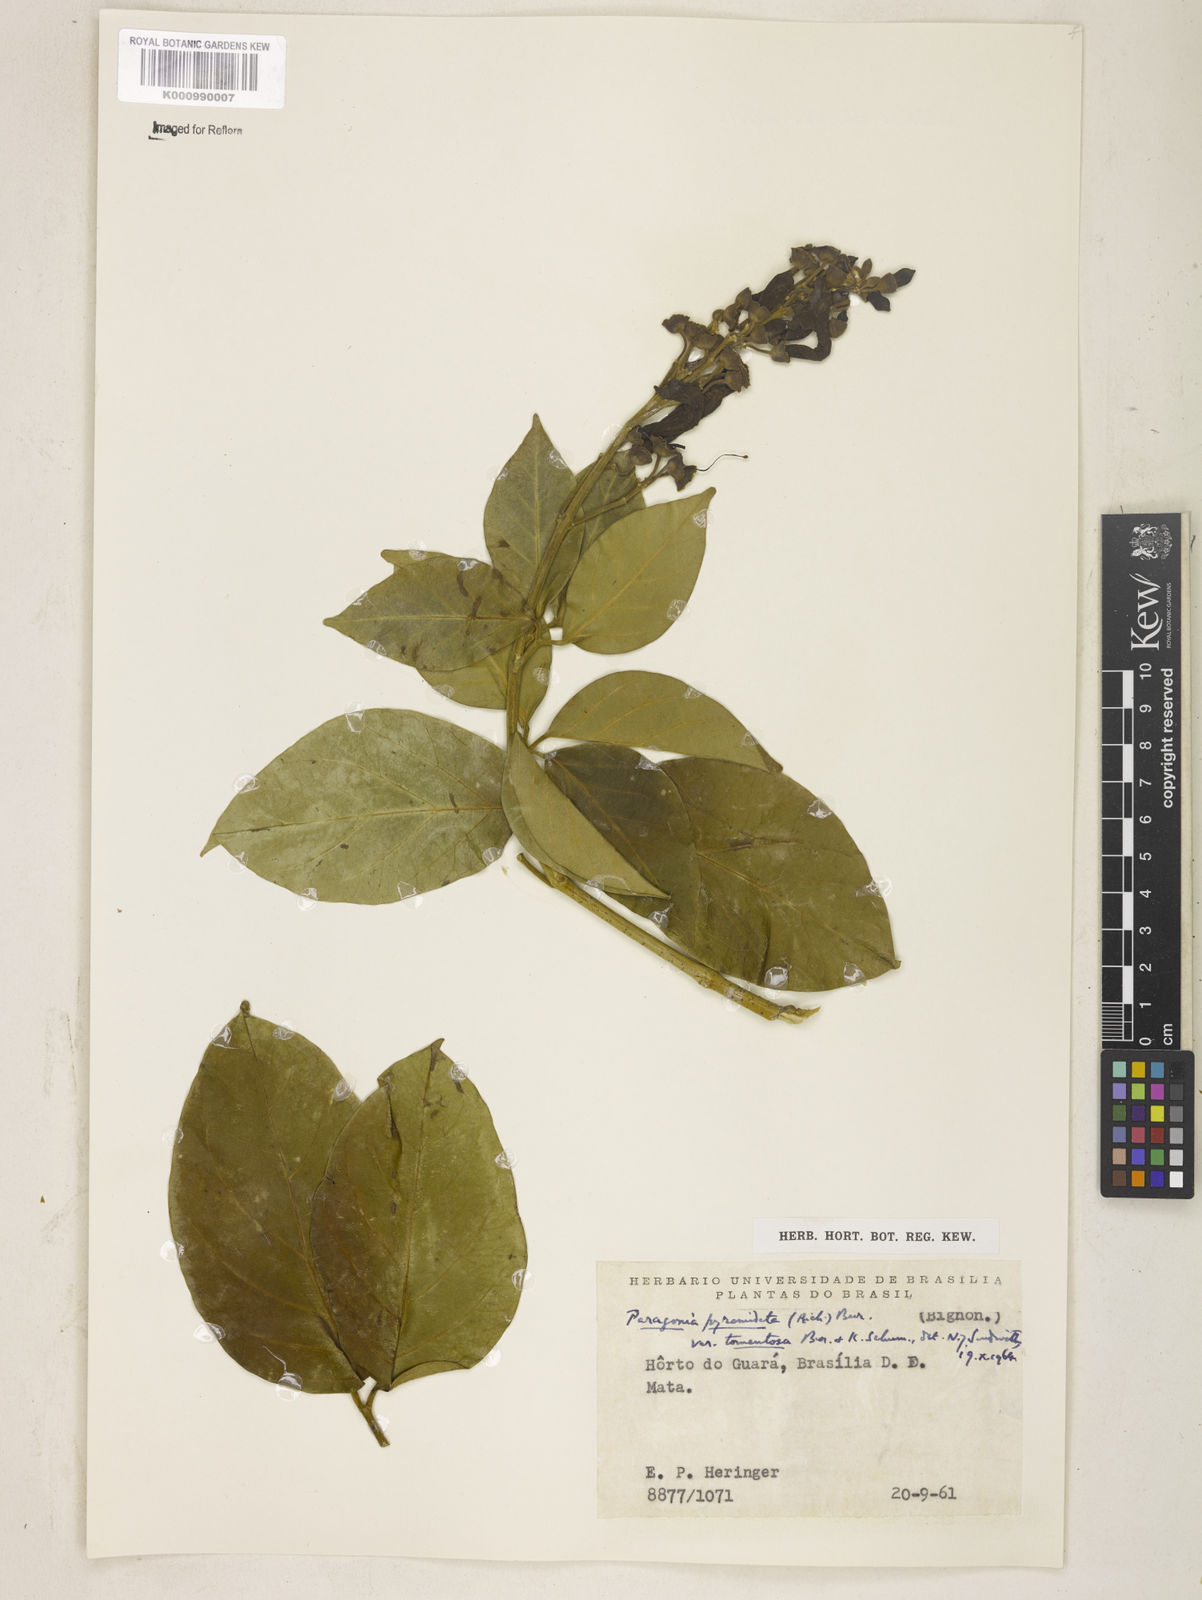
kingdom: Plantae
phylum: Tracheophyta
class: Magnoliopsida
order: Lamiales
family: Bignoniaceae
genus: Tanaecium
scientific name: Tanaecium pyramidatum
